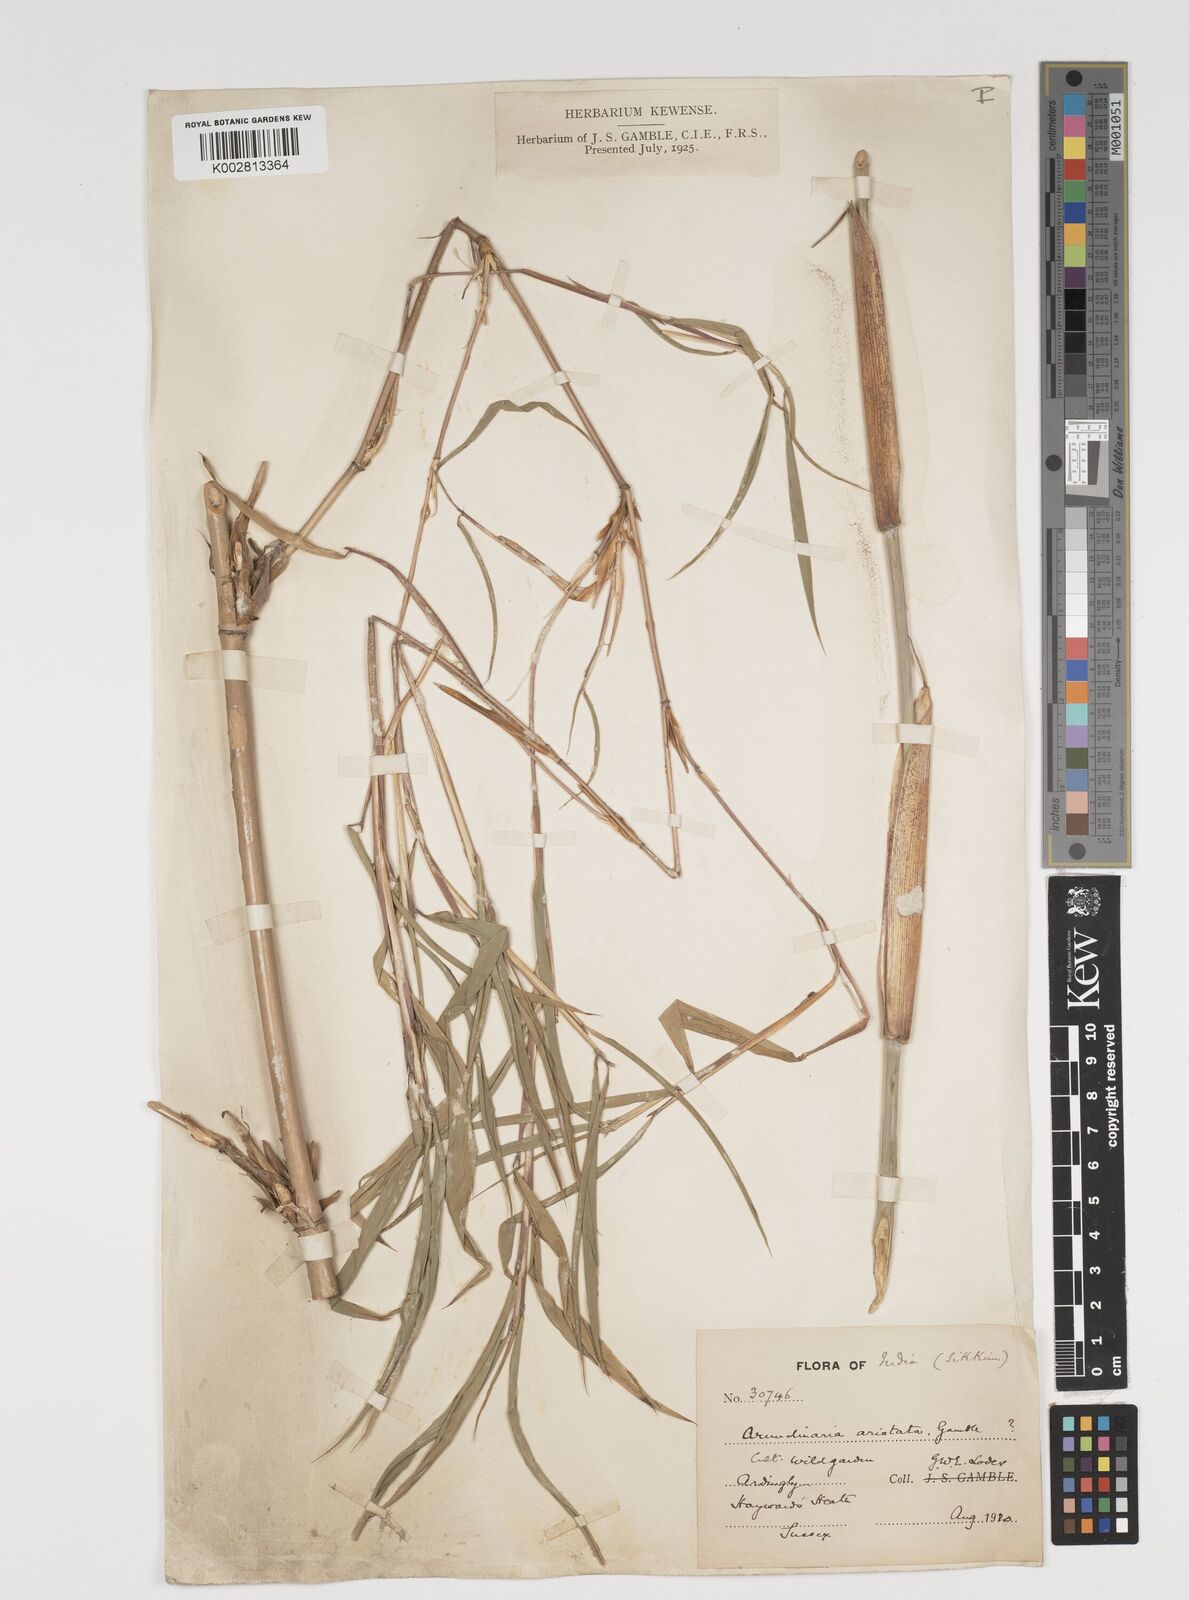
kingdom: Plantae
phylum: Tracheophyta
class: Liliopsida
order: Poales
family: Poaceae
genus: Thamnocalamus
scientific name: Thamnocalamus spathiflorus
